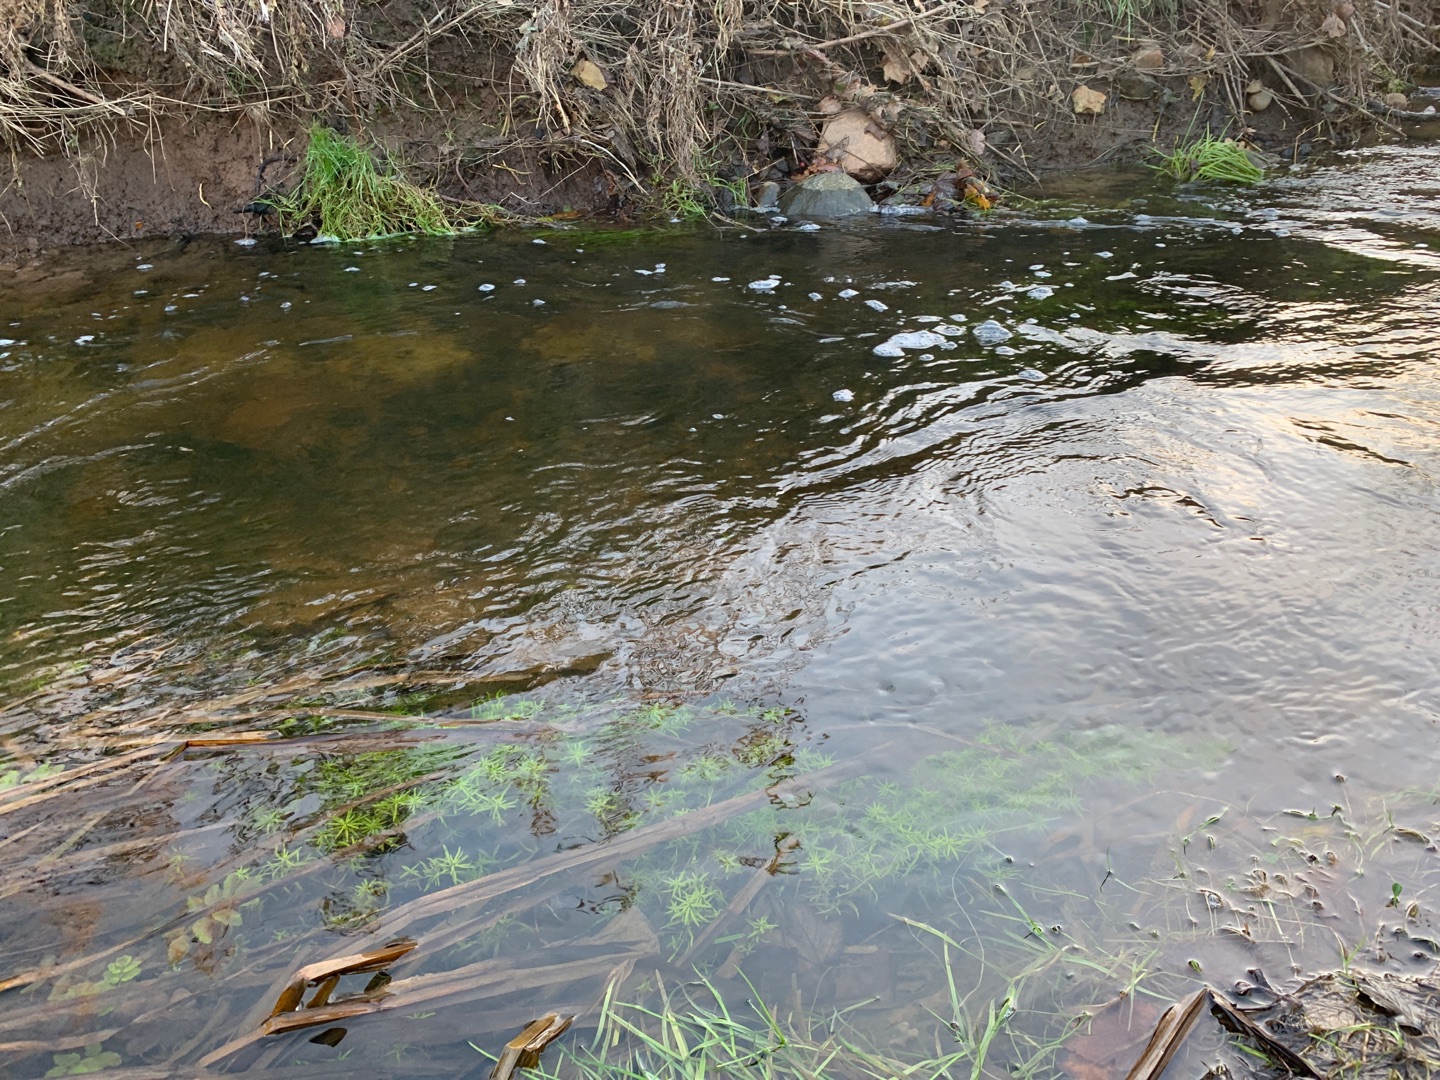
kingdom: Plantae
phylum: Tracheophyta
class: Magnoliopsida
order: Lamiales
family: Plantaginaceae
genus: Callitriche
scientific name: Callitriche
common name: Vandstjerneslægten
